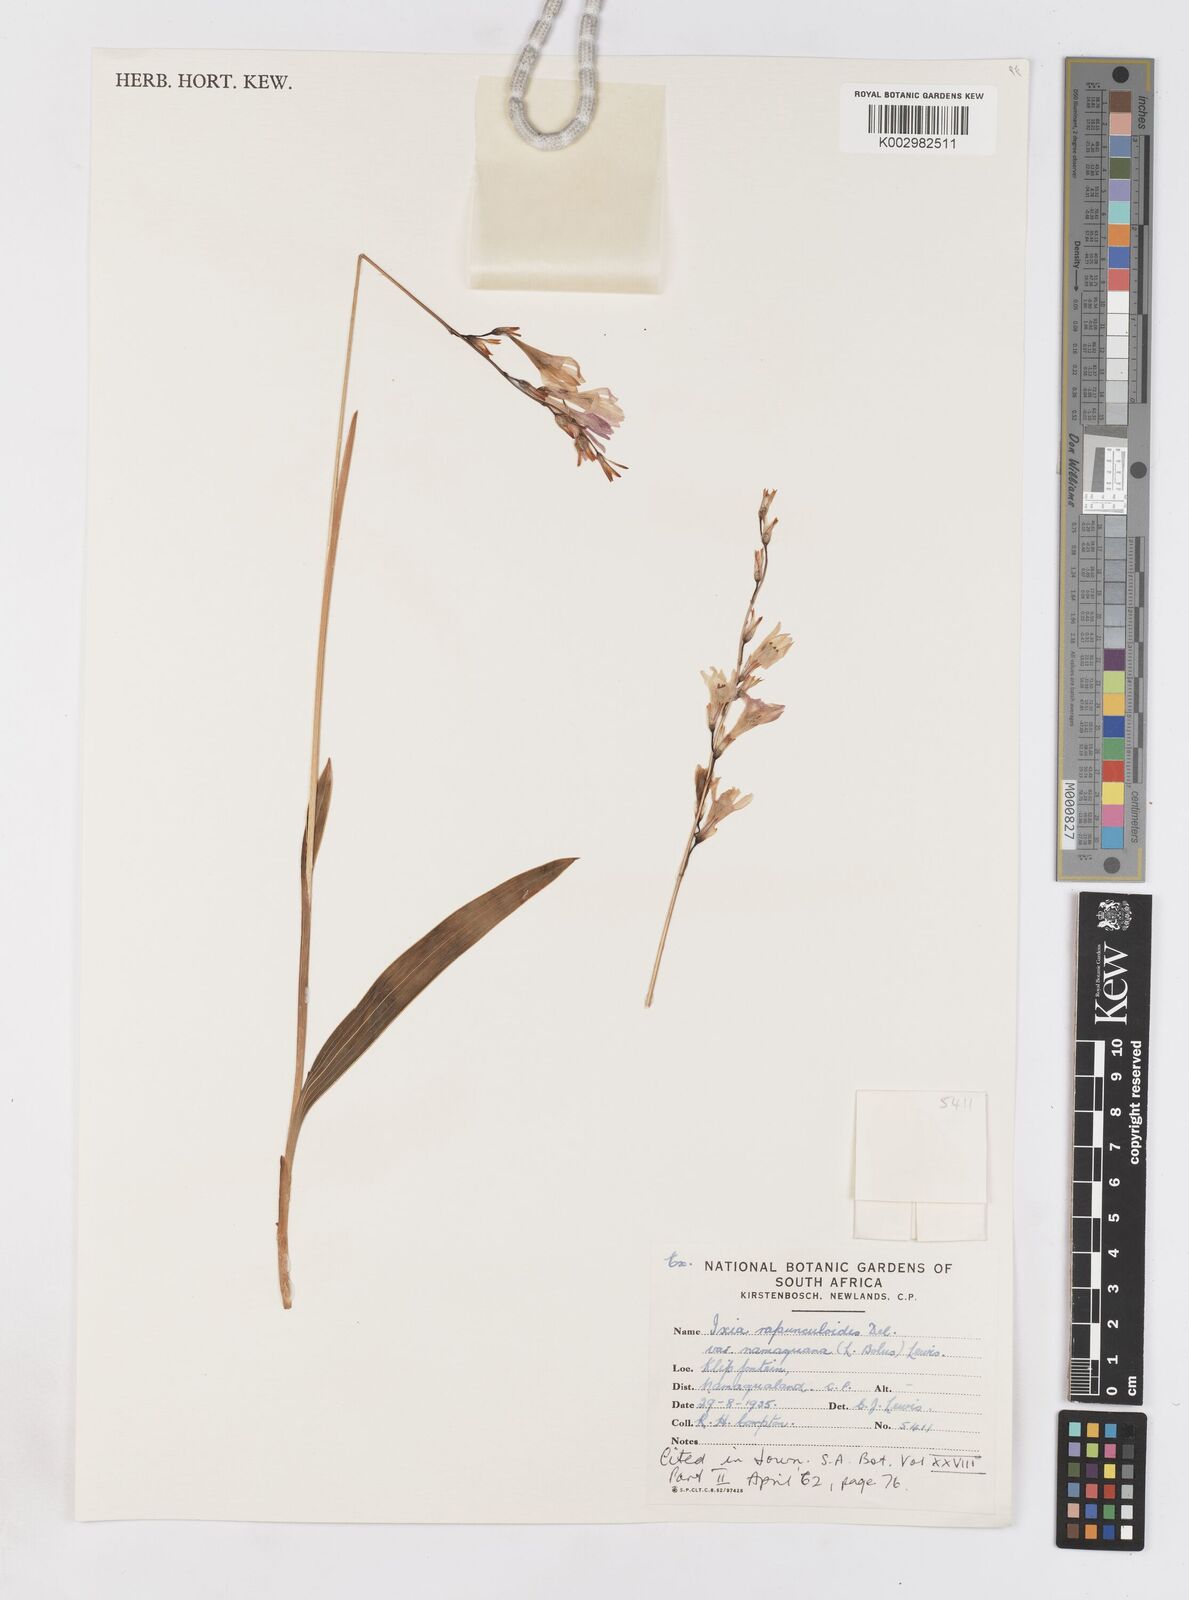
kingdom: Plantae
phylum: Tracheophyta
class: Liliopsida
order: Asparagales
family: Iridaceae
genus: Ixia
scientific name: Ixia rapunculoides
